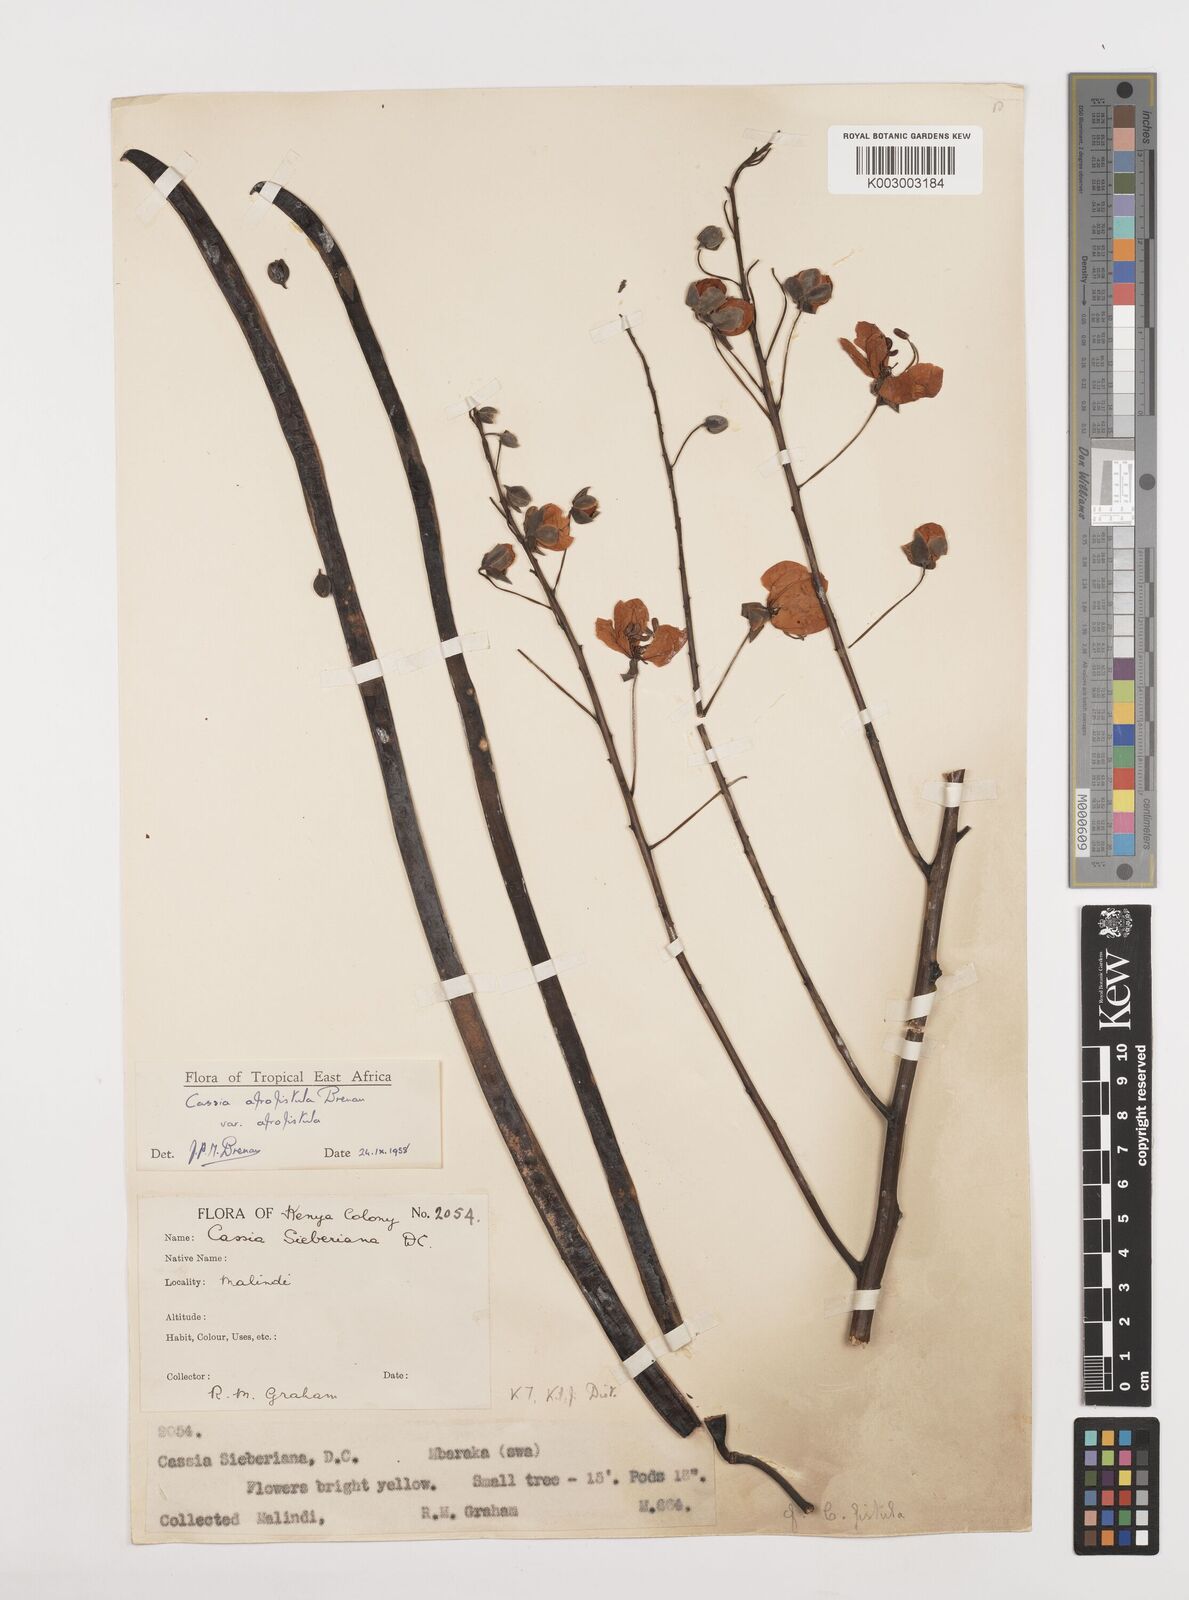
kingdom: Plantae
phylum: Tracheophyta
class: Magnoliopsida
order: Fabales
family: Fabaceae
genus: Cassia
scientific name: Cassia afrofistula
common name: Kenyan shower
